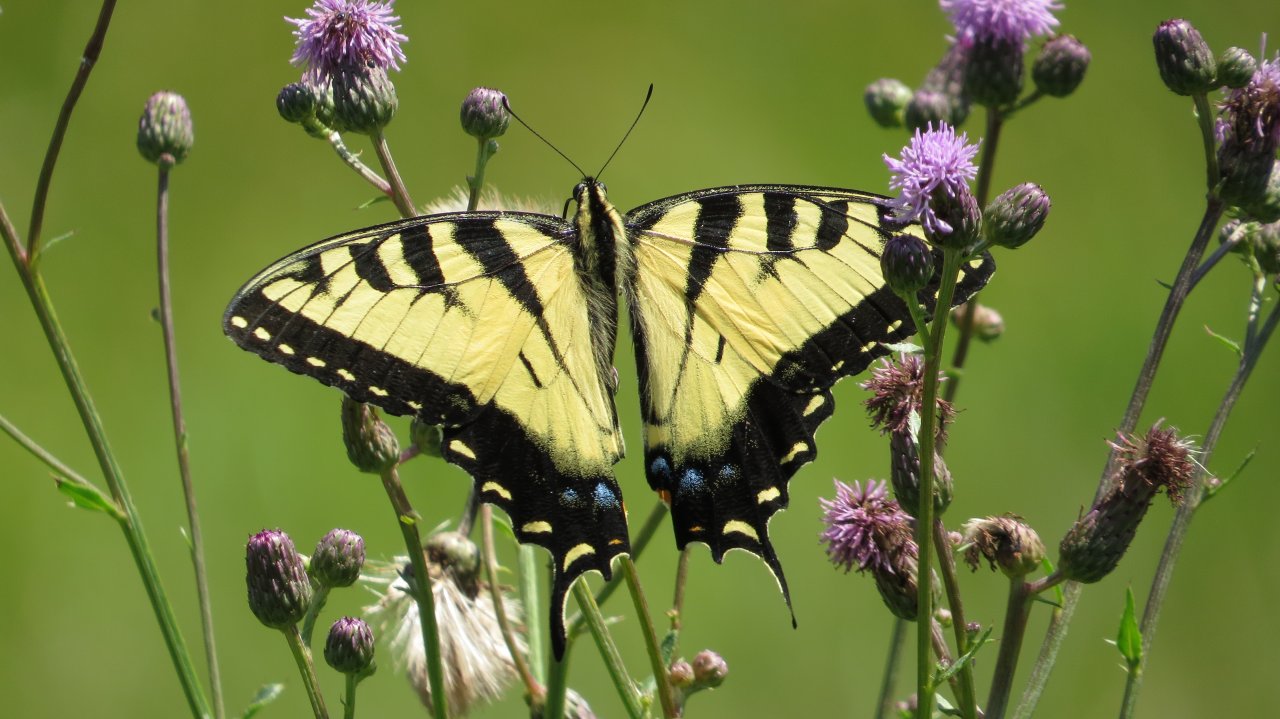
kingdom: Animalia
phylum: Arthropoda
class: Insecta
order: Lepidoptera
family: Papilionidae
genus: Pterourus
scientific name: Pterourus glaucus
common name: Eastern Tiger Swallowtail
